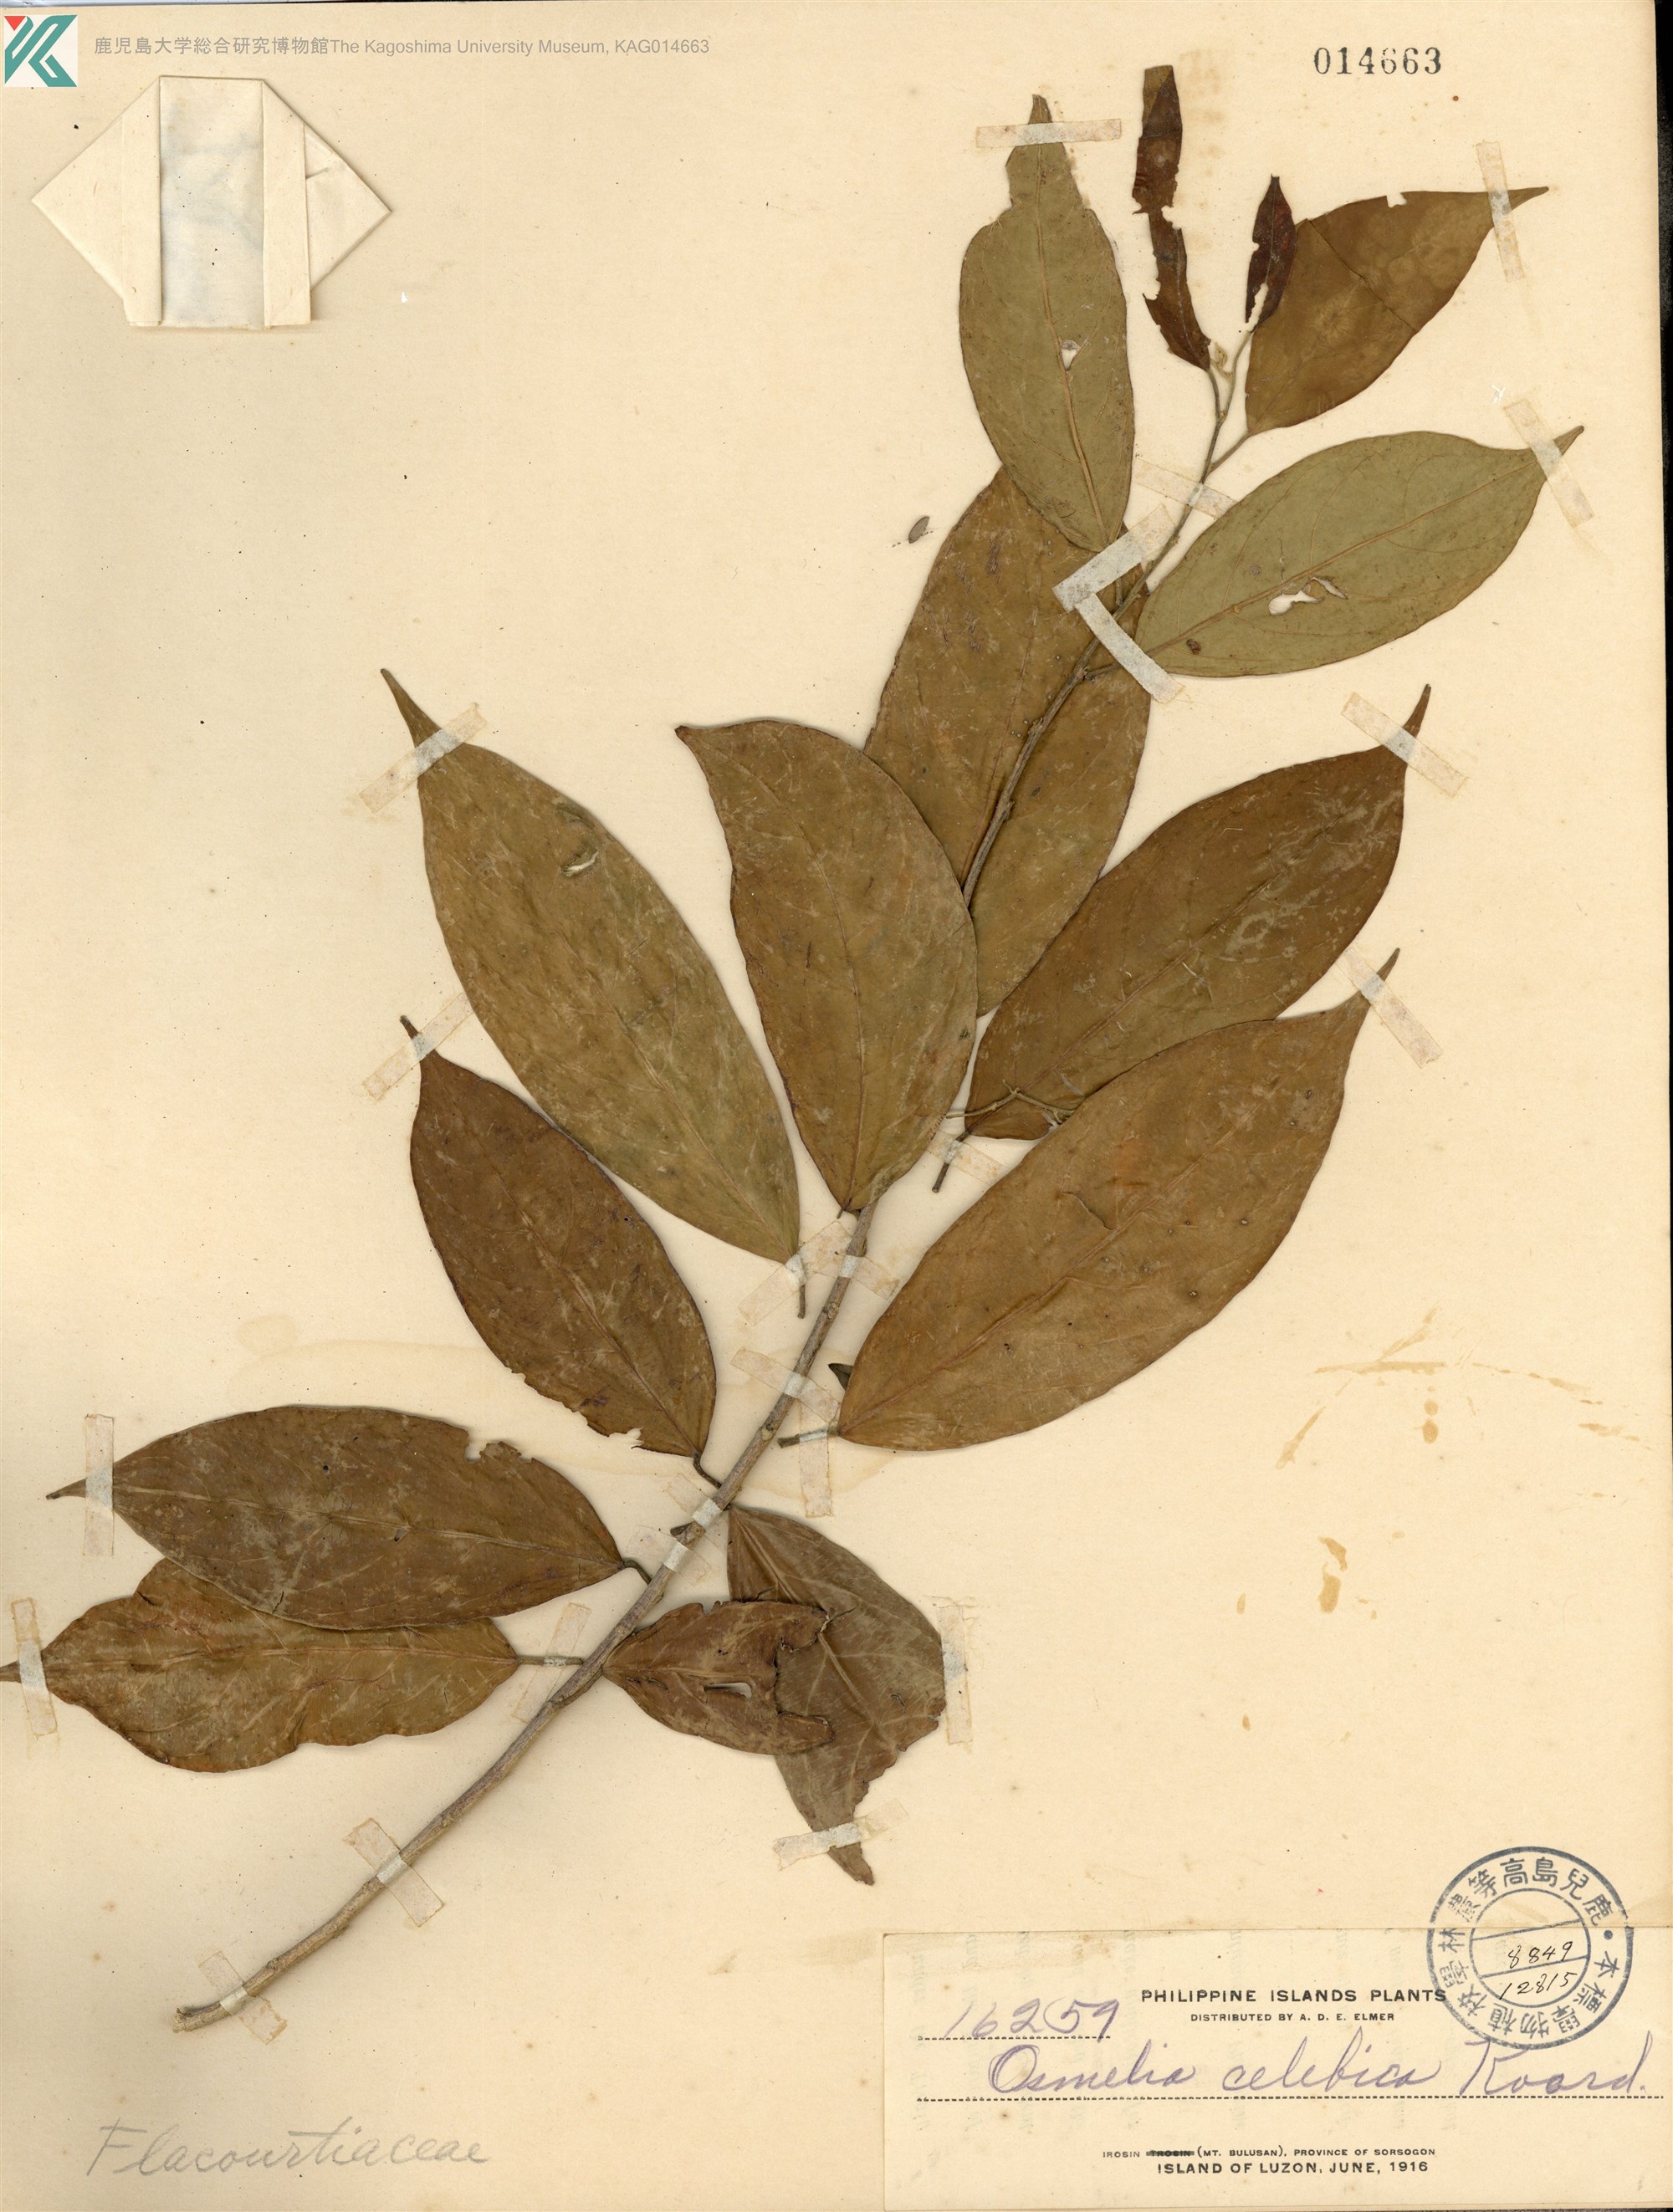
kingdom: Plantae
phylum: Tracheophyta
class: Magnoliopsida
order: Malpighiales
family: Salicaceae
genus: Osmelia
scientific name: Osmelia philippina
